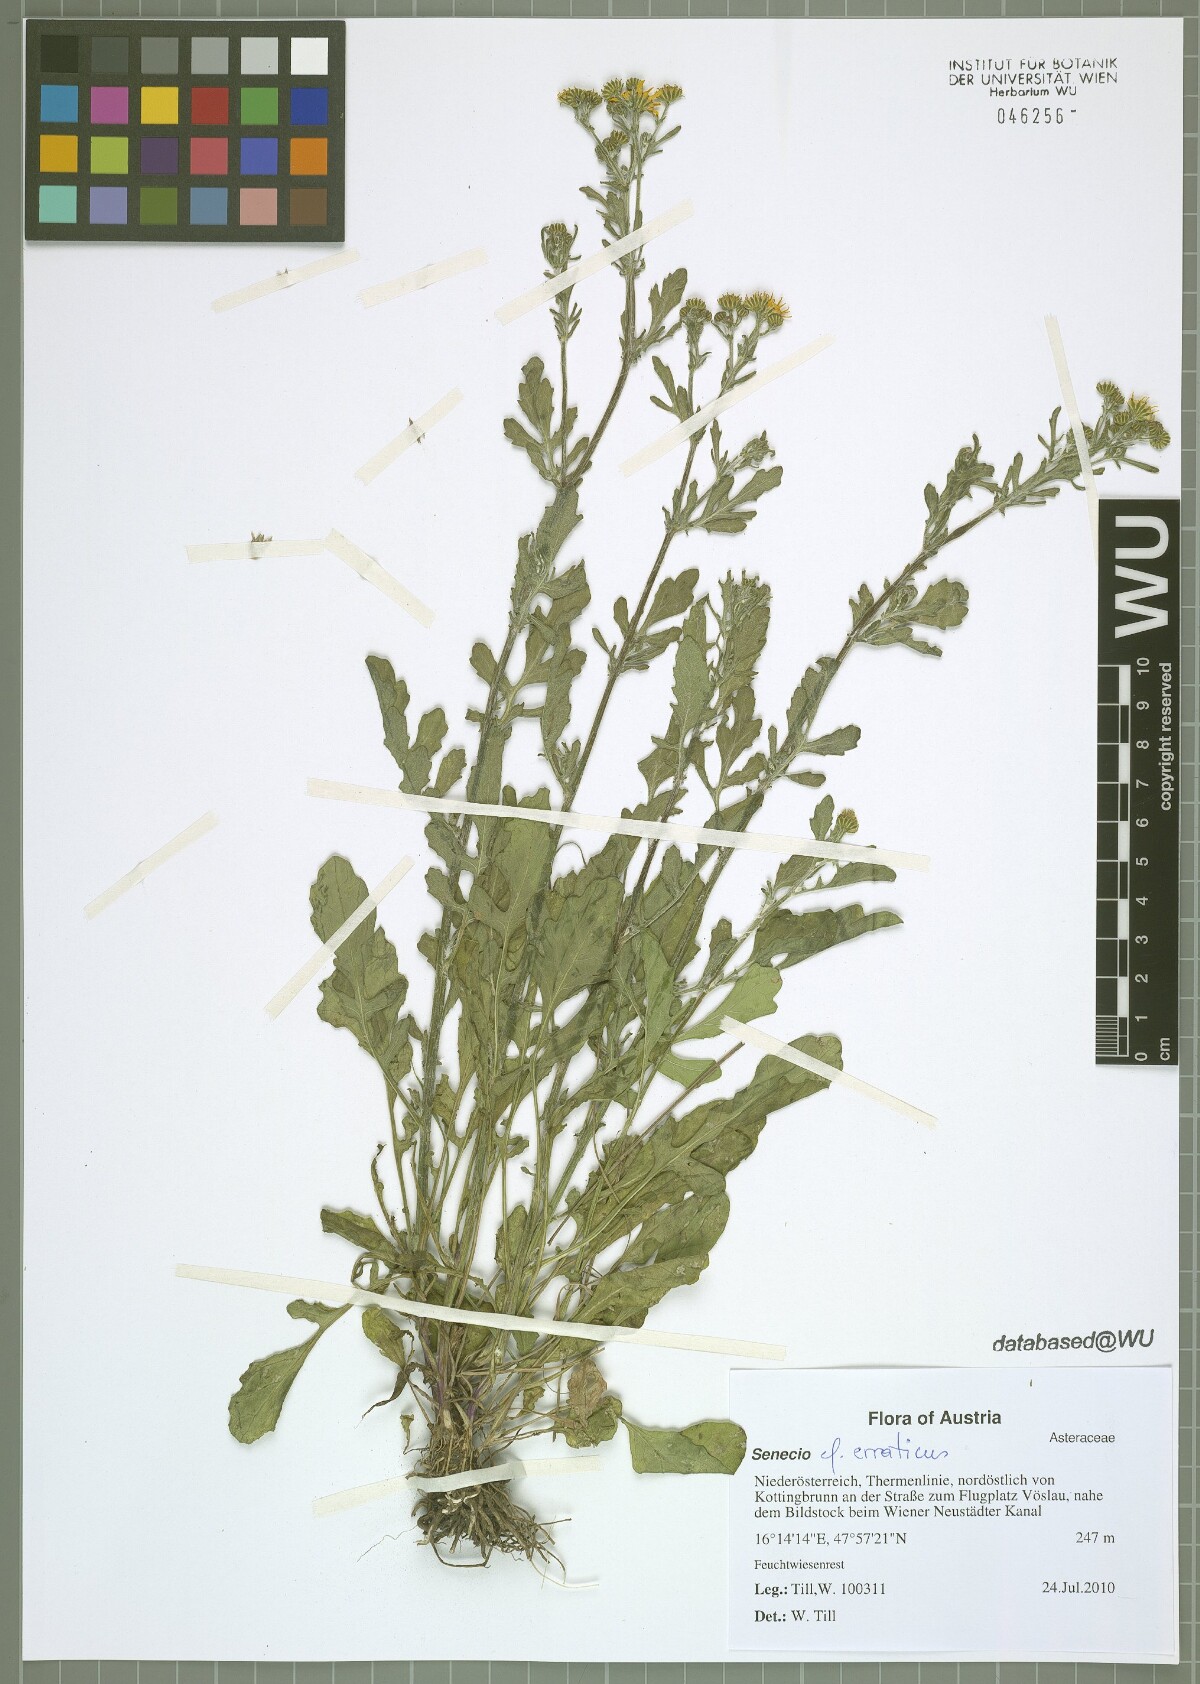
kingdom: Plantae
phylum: Tracheophyta
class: Magnoliopsida
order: Asterales
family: Asteraceae
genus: Jacobaea
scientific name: Jacobaea erratica
